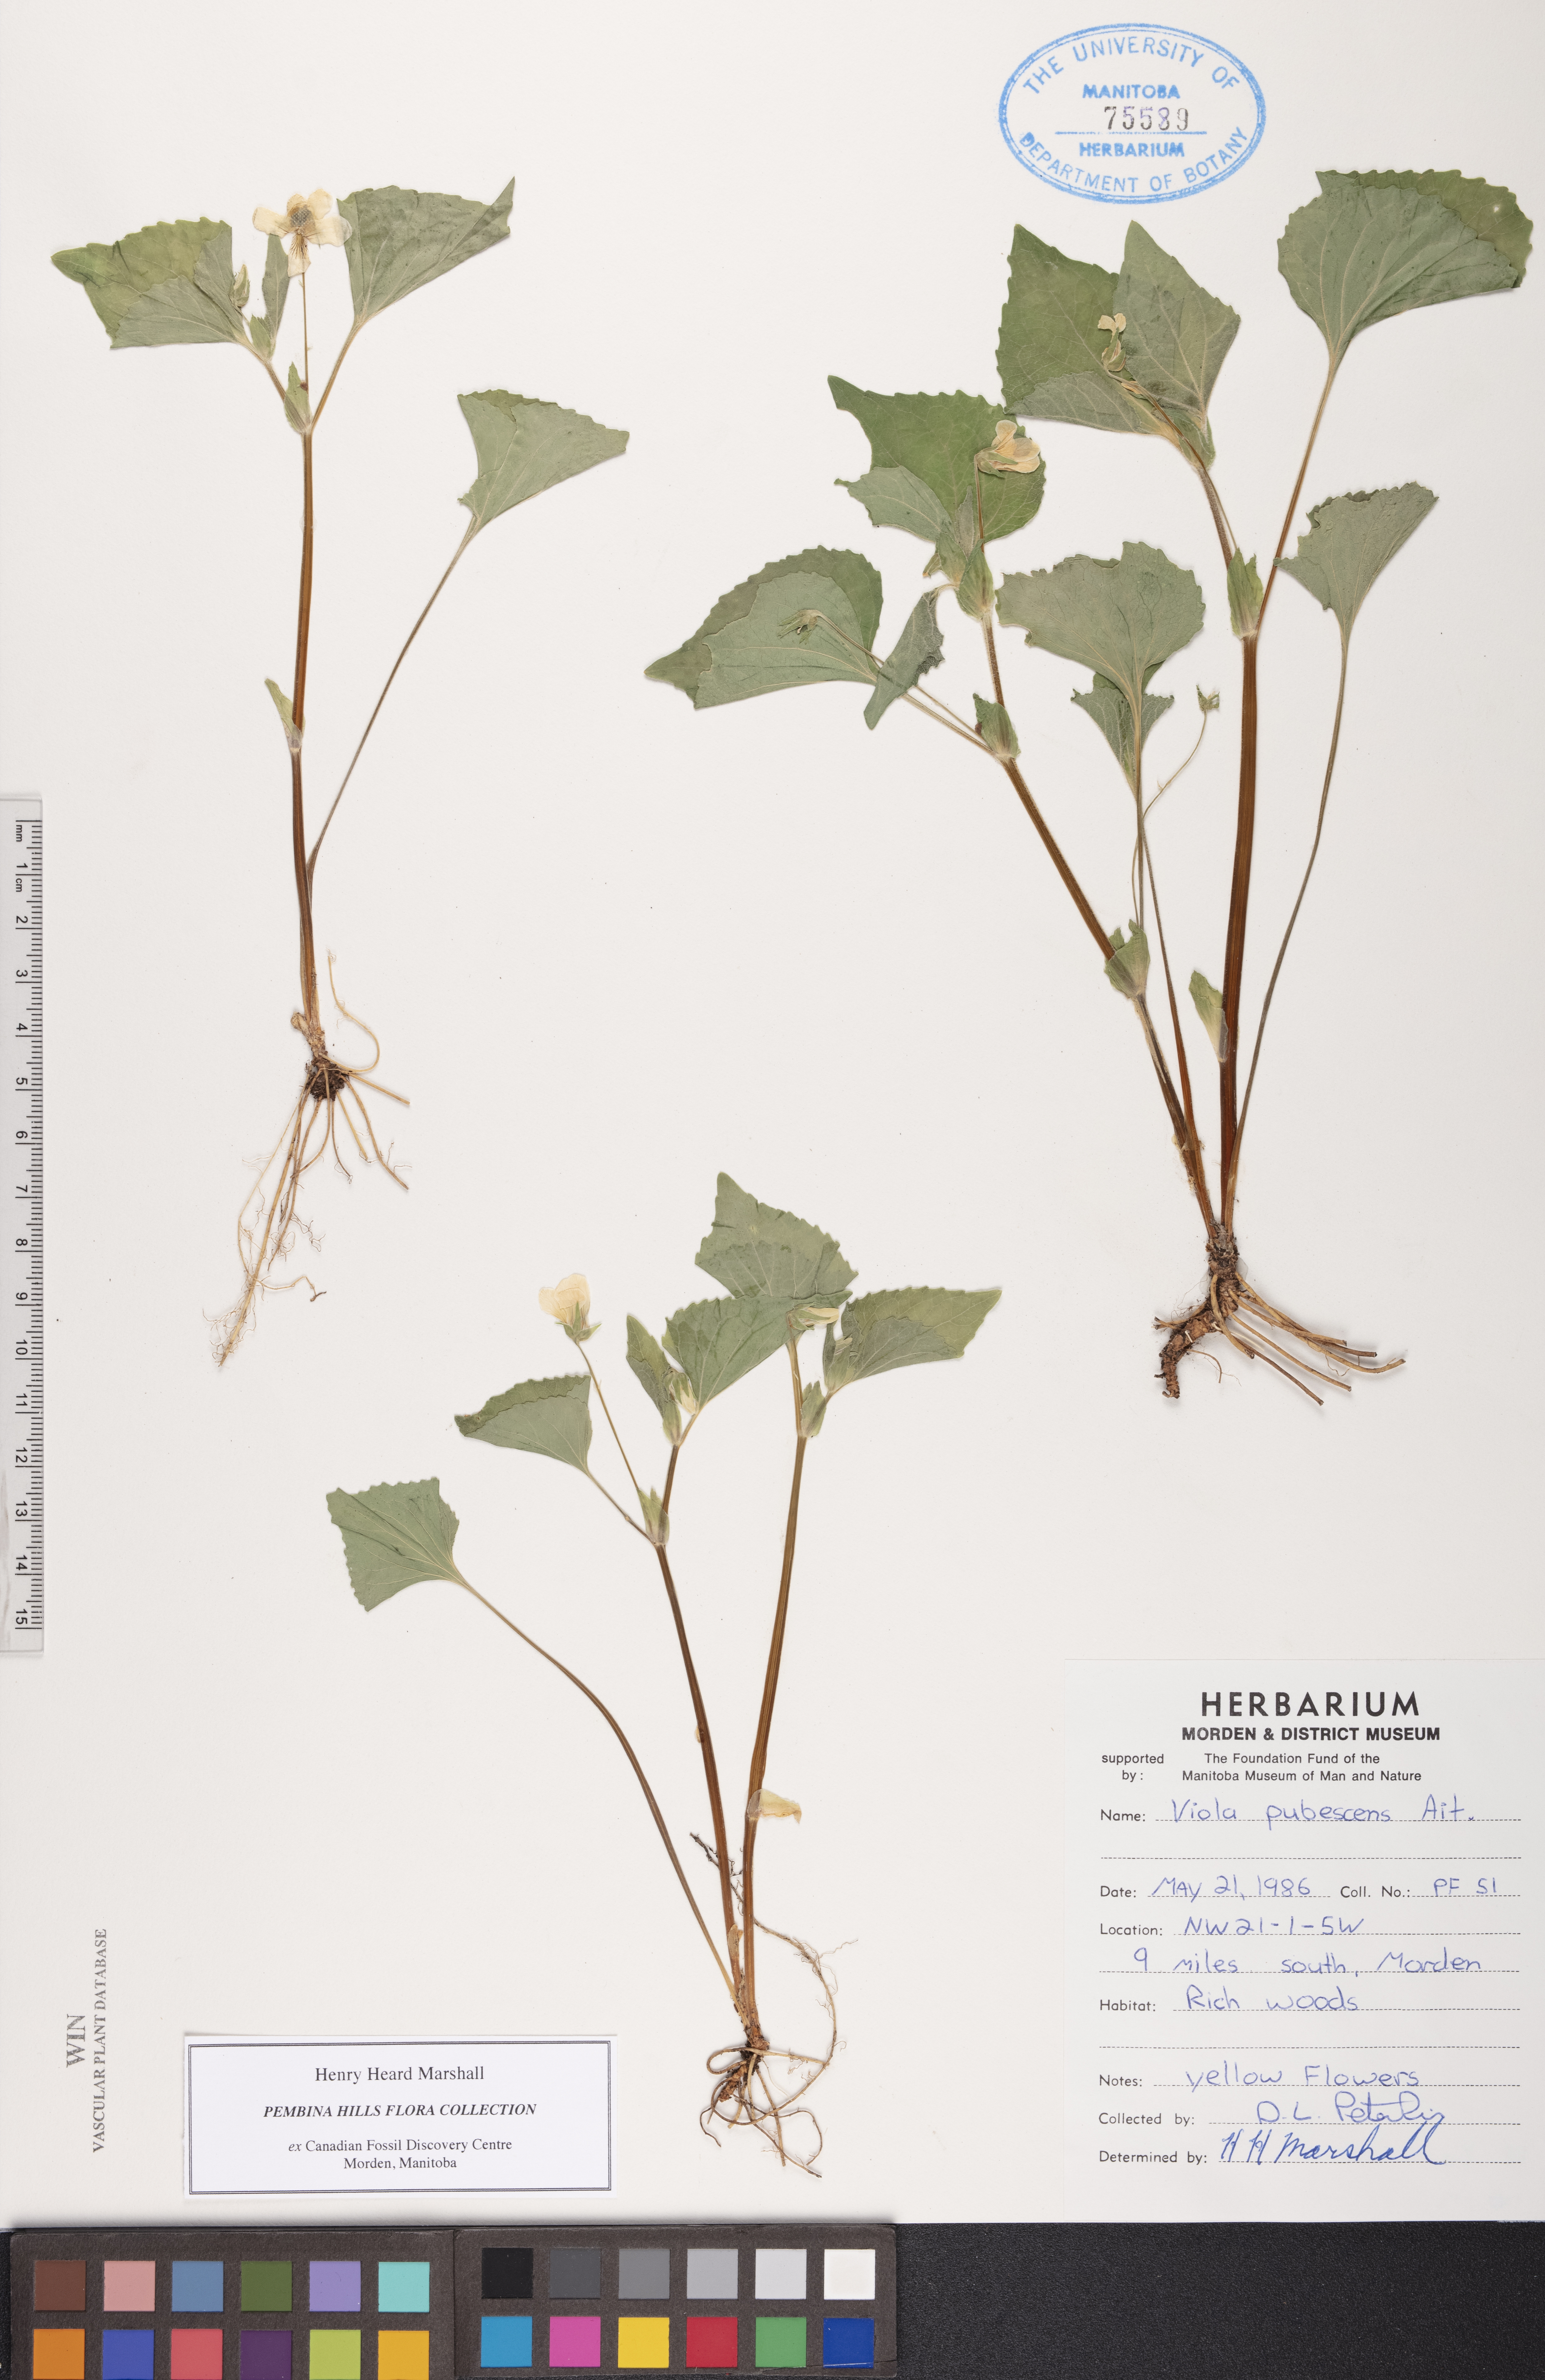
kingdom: Plantae
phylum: Tracheophyta
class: Magnoliopsida
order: Malpighiales
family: Violaceae
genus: Viola
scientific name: Viola pubescens
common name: Yellow forest violet
